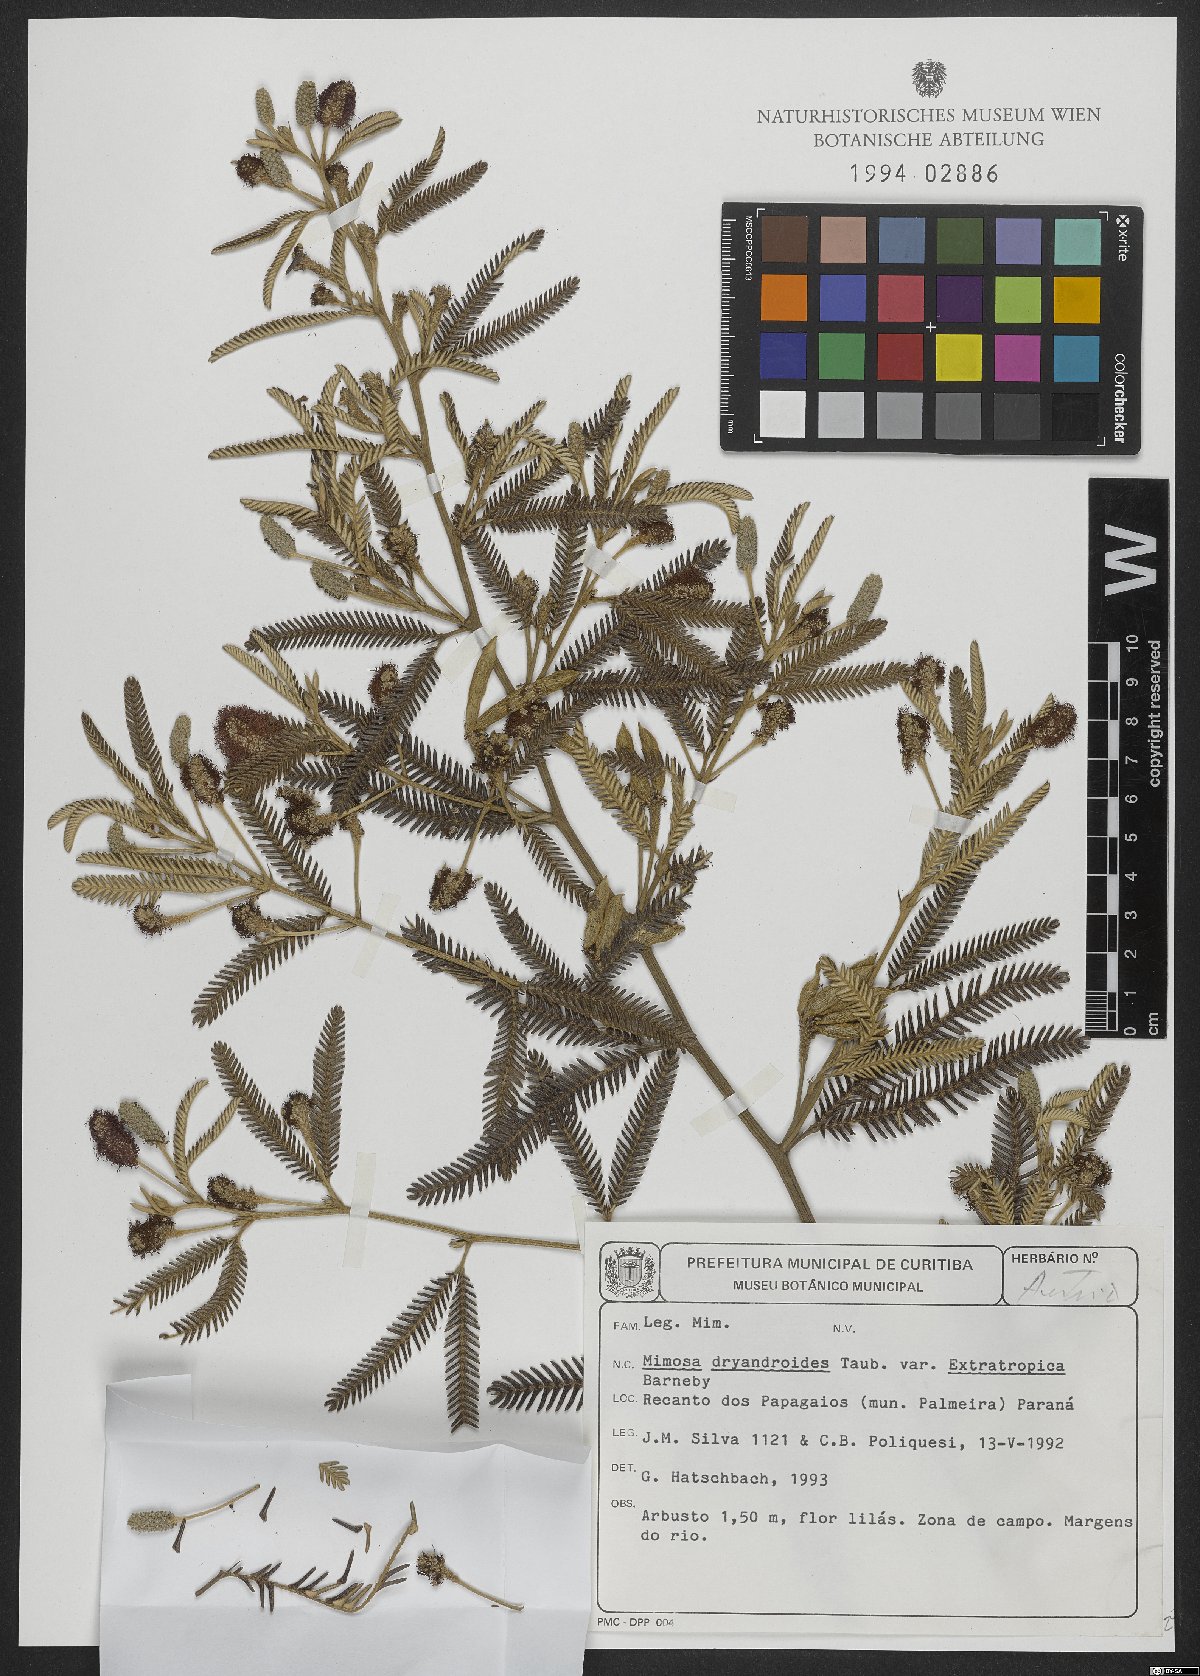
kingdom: Plantae
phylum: Tracheophyta
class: Magnoliopsida
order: Fabales
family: Fabaceae
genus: Mimosa
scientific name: Mimosa dryandroides
